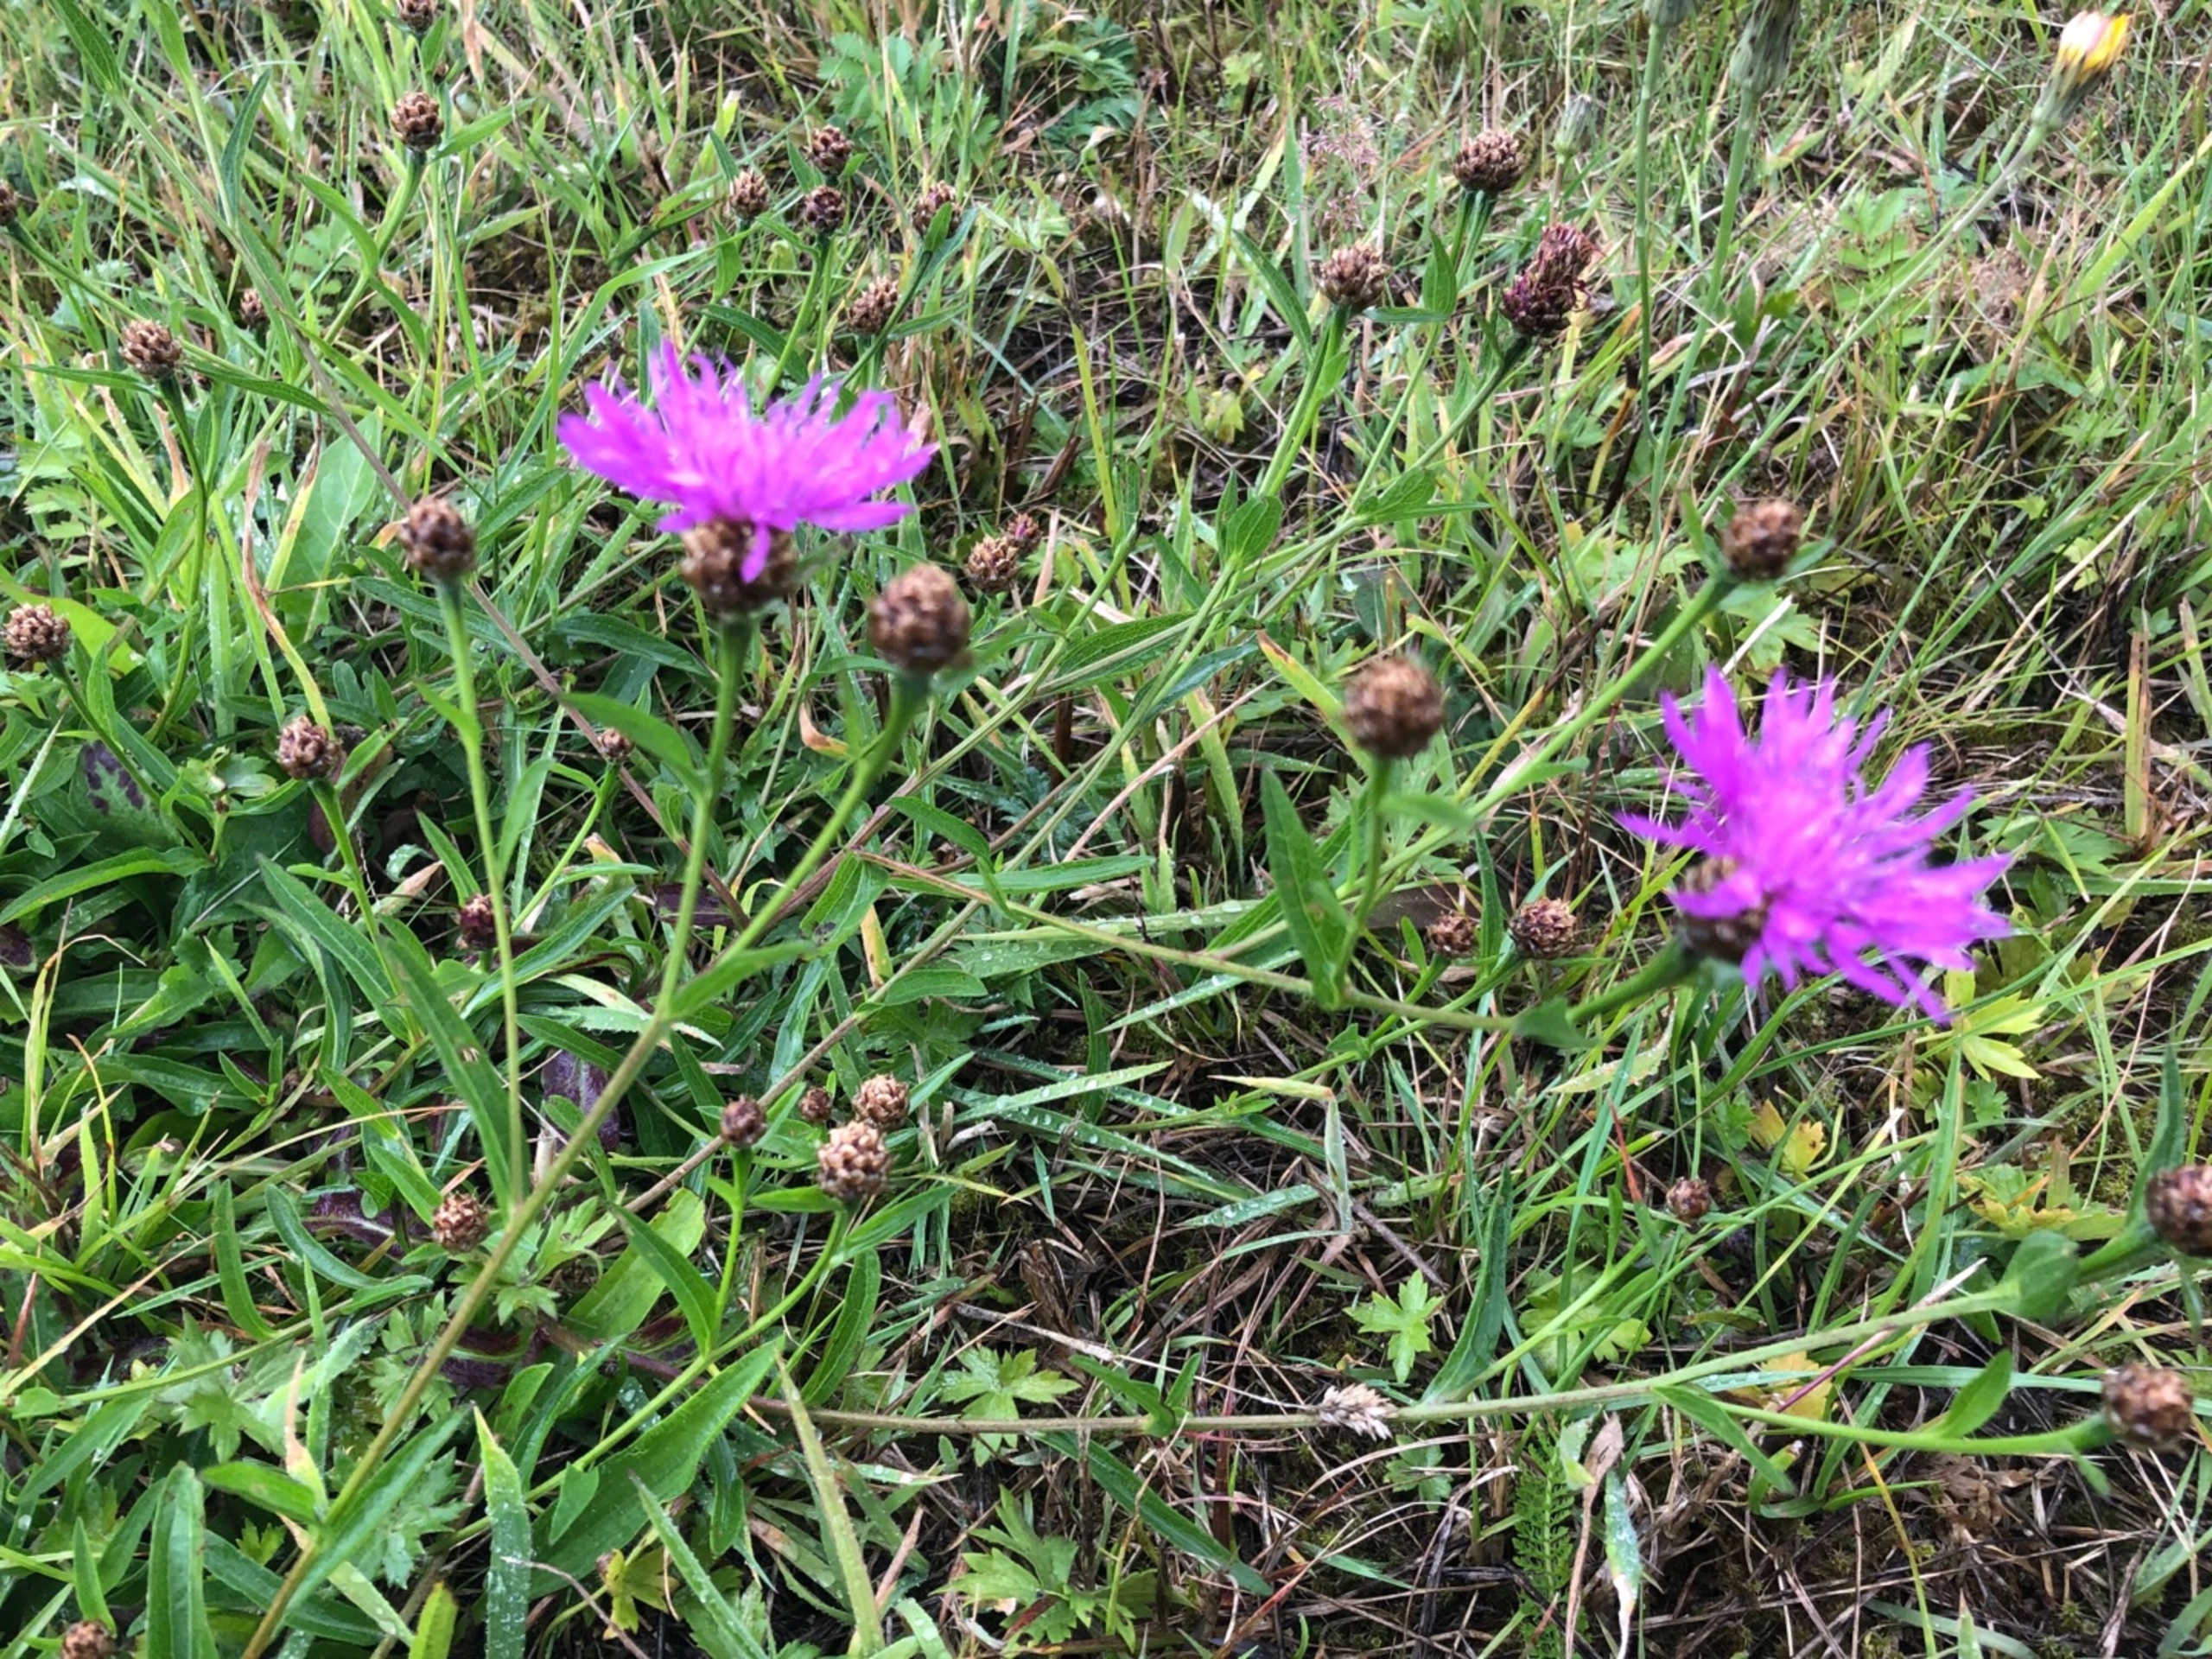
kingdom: Plantae
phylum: Tracheophyta
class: Magnoliopsida
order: Asterales
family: Asteraceae
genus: Centaurea
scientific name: Centaurea jacea
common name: Almindelig knopurt
